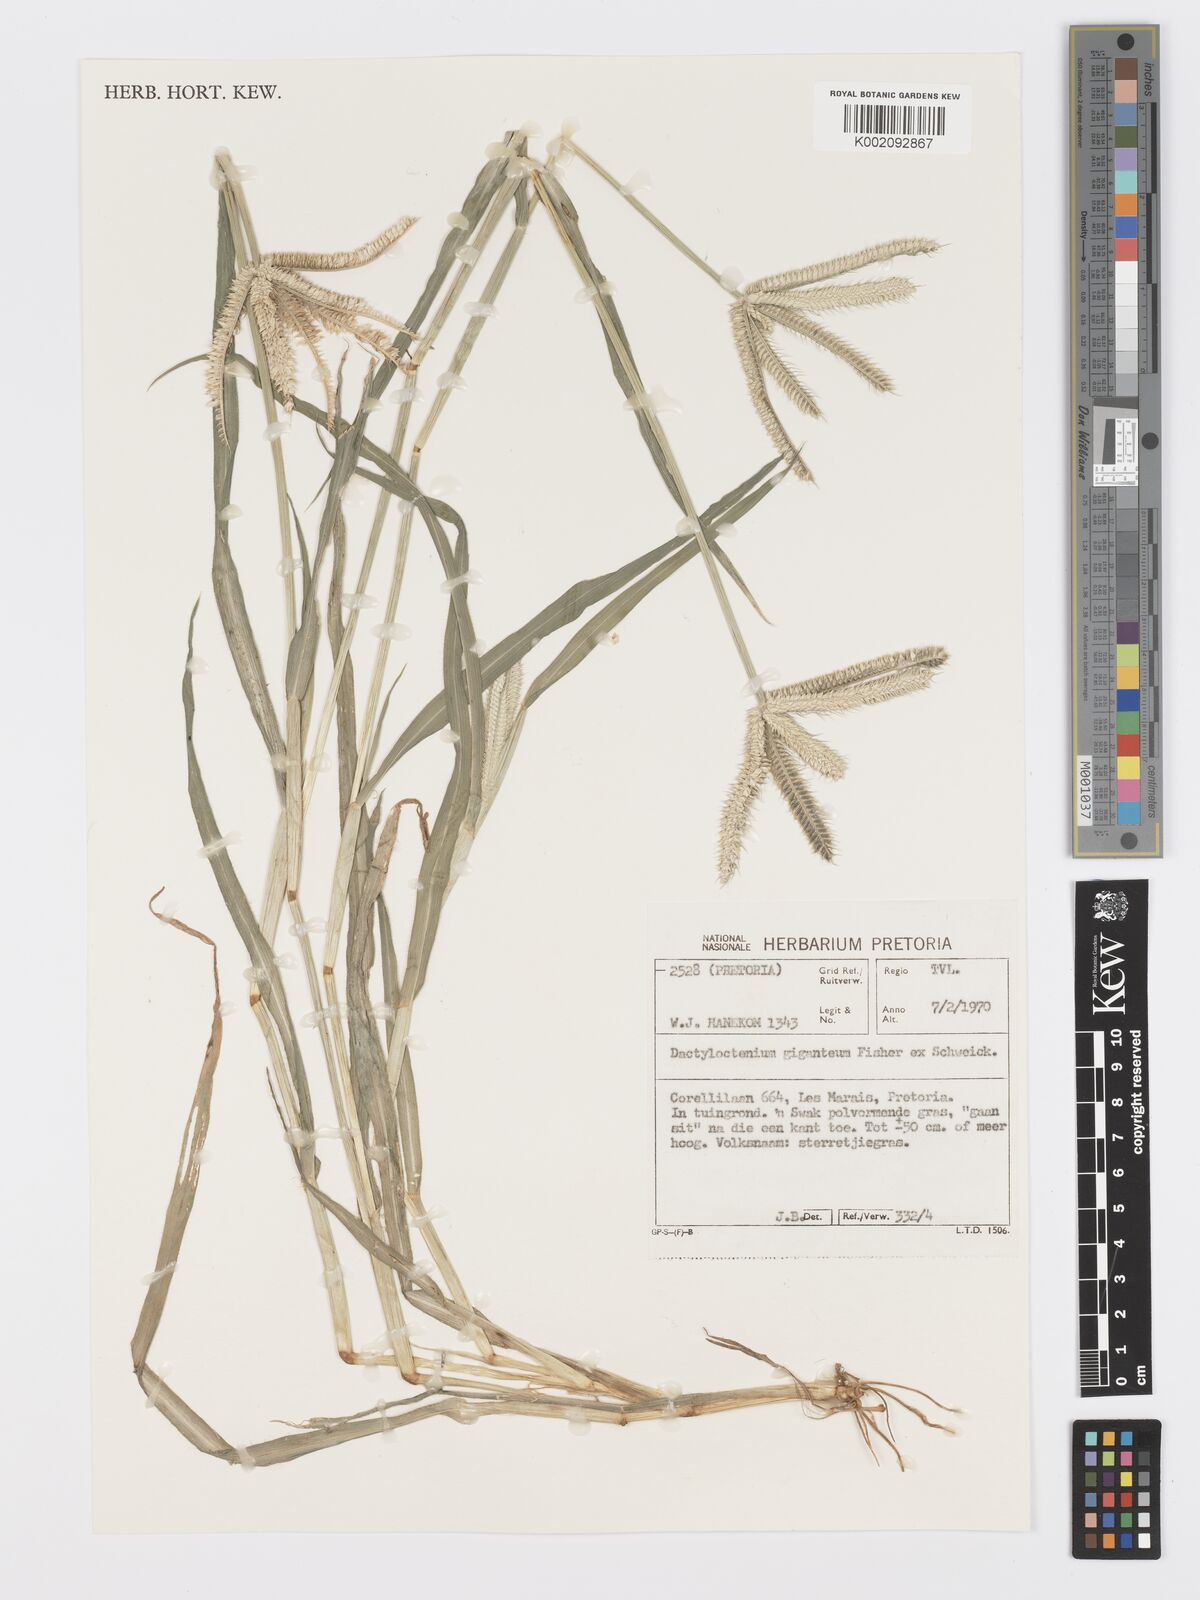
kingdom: Plantae
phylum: Tracheophyta
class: Liliopsida
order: Poales
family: Poaceae
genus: Dactyloctenium
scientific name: Dactyloctenium aegyptium
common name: Egyptian grass
